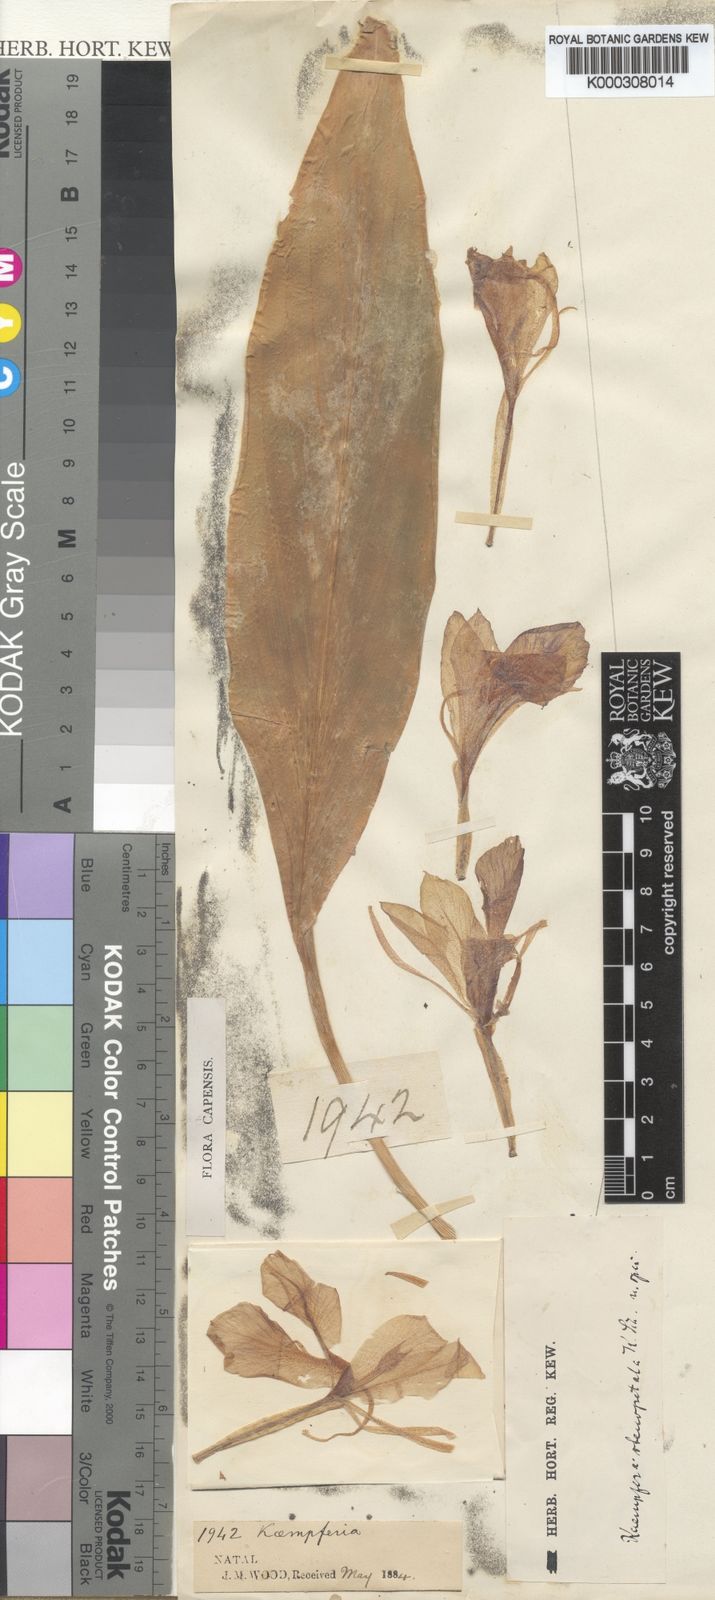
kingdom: Plantae
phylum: Tracheophyta
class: Liliopsida
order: Zingiberales
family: Zingiberaceae
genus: Siphonochilus
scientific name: Siphonochilus aethiopicus
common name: African-ginger
